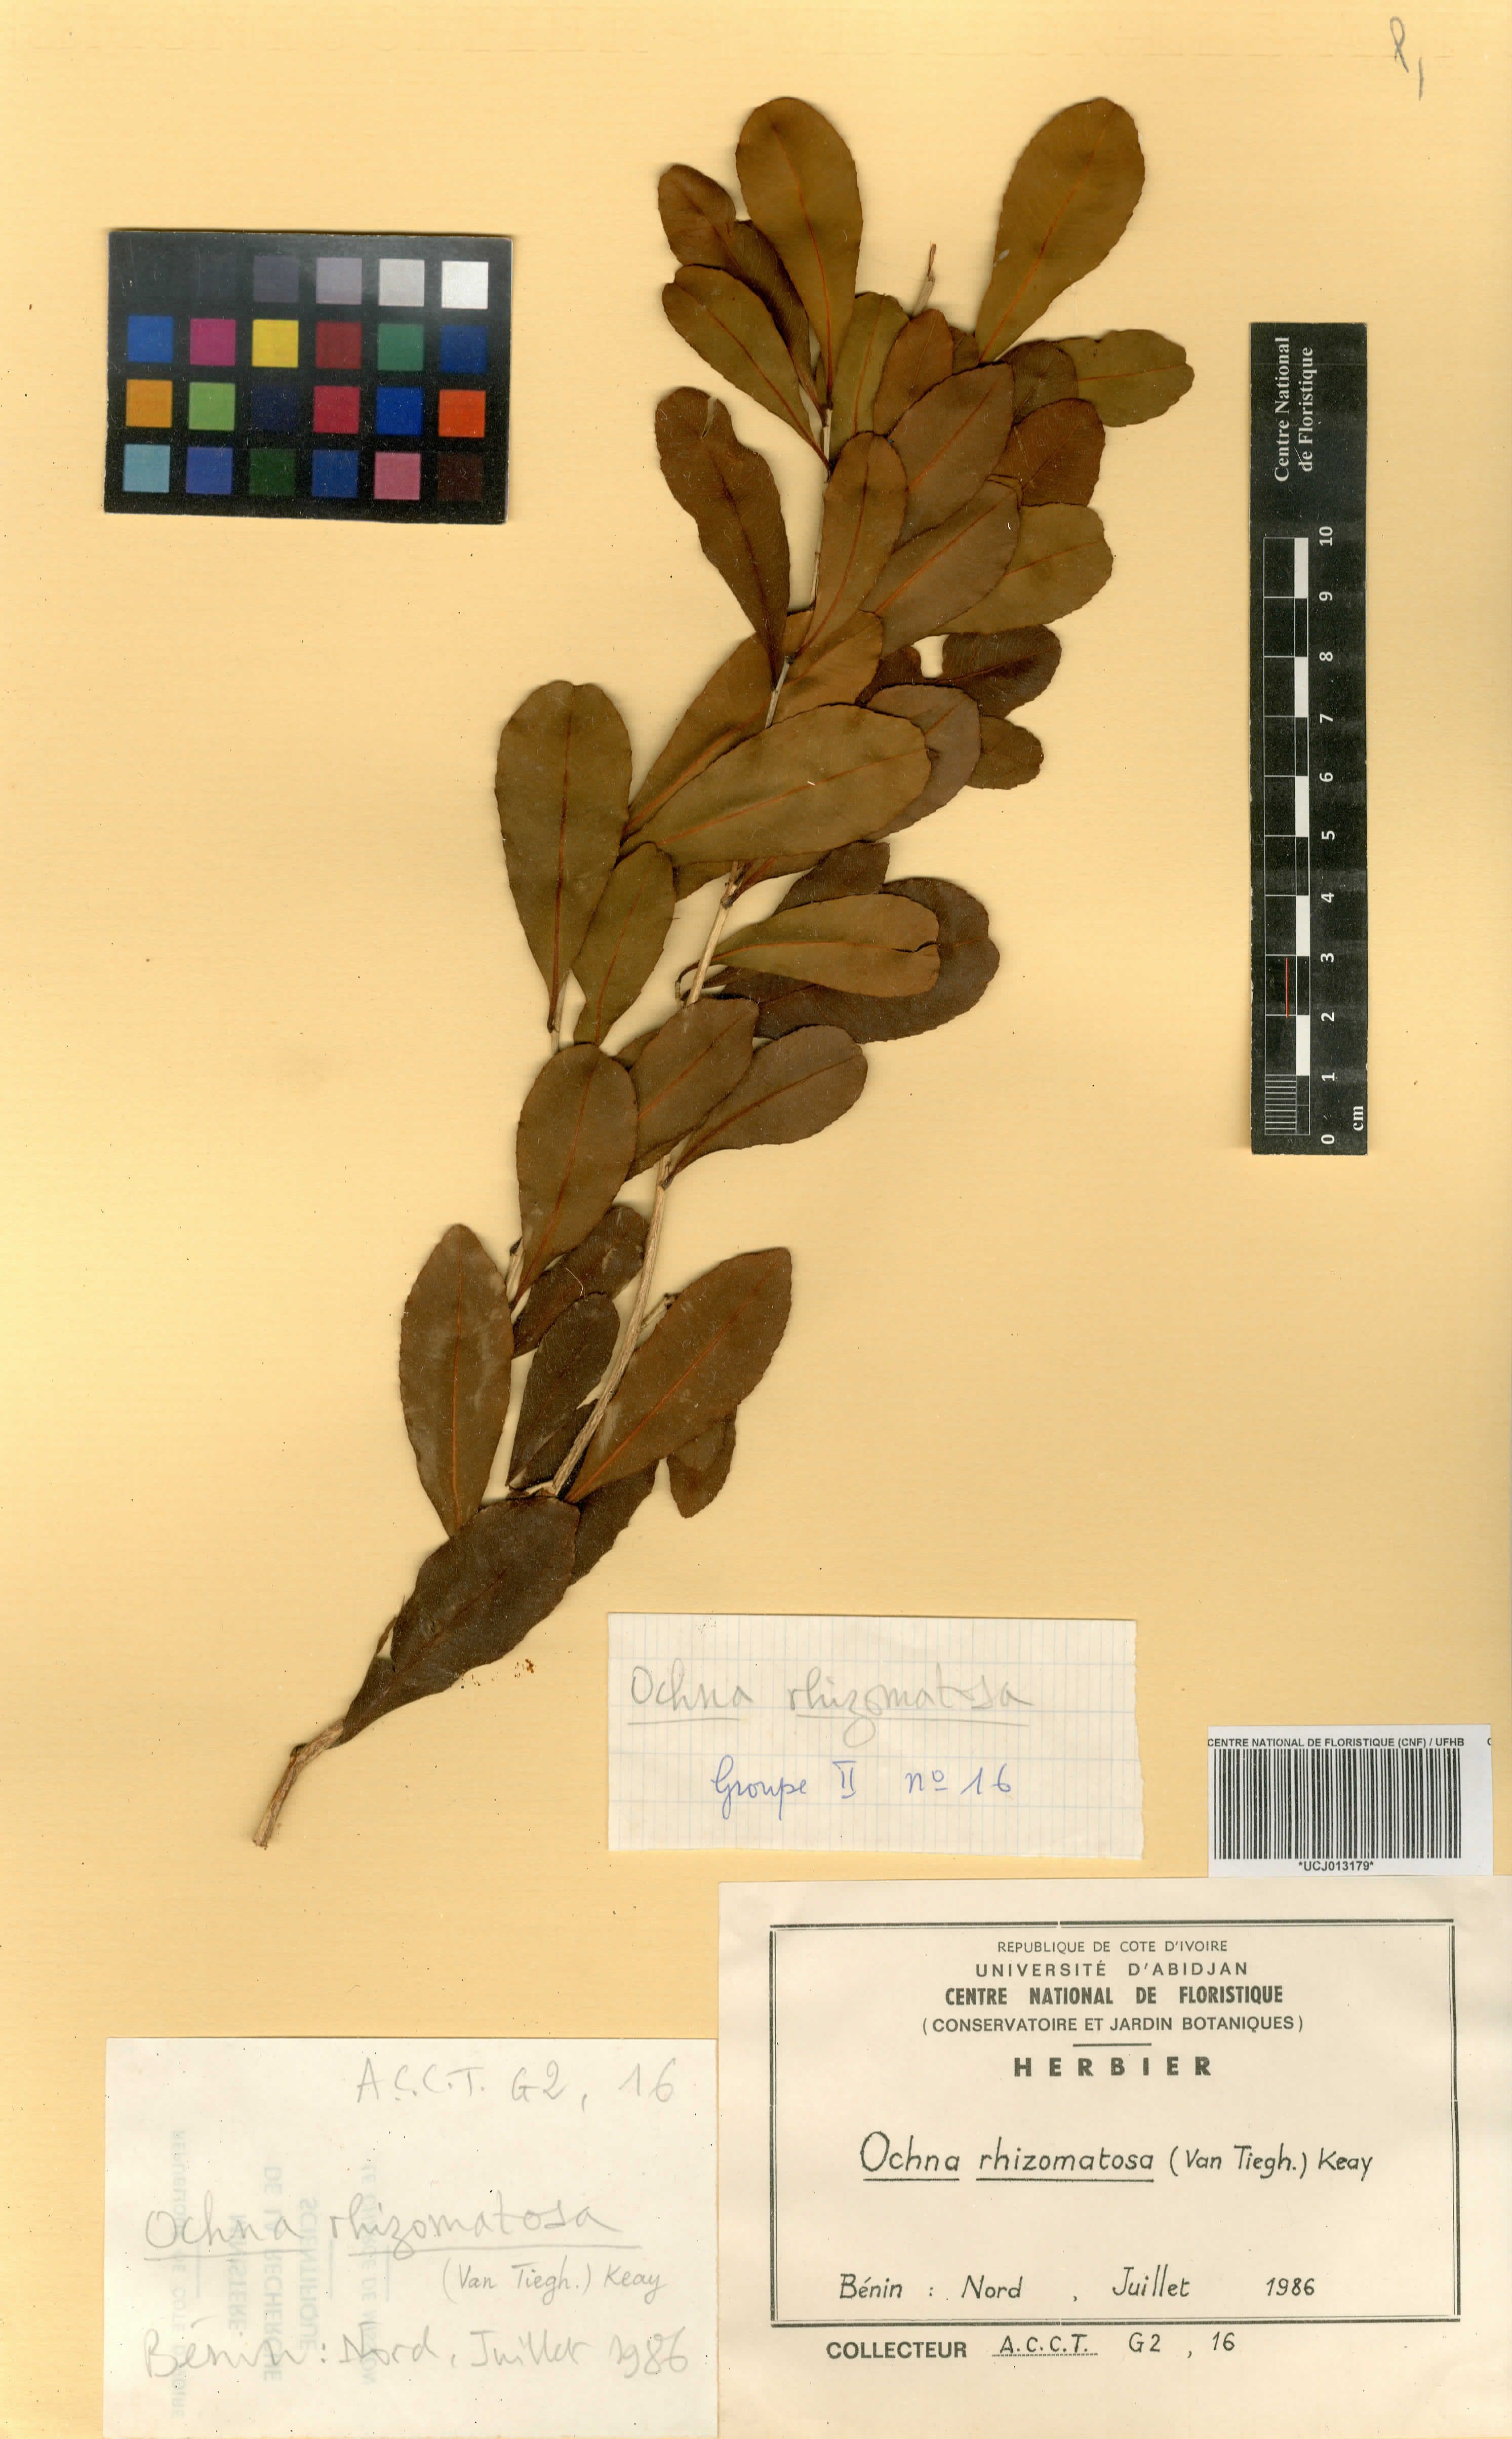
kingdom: Plantae
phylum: Tracheophyta
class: Magnoliopsida
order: Malpighiales
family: Ochnaceae
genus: Ochna
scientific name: Ochna rhizomatosa
